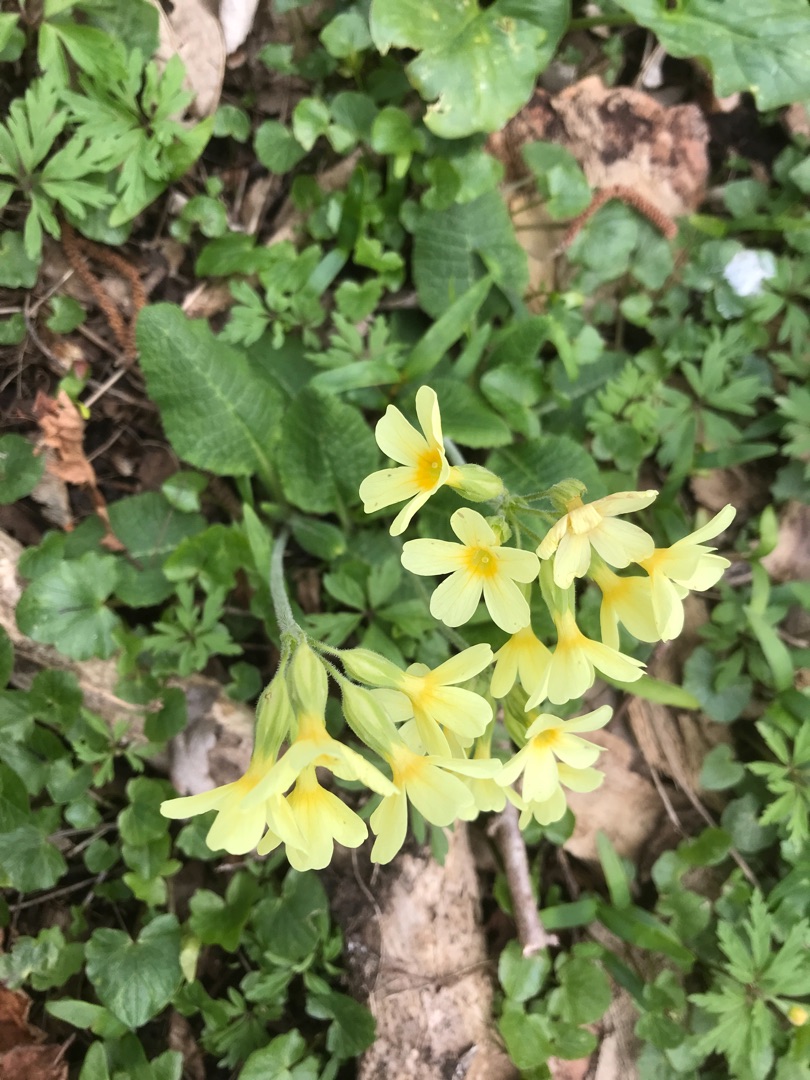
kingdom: Plantae
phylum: Tracheophyta
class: Magnoliopsida
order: Ericales
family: Primulaceae
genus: Primula
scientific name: Primula elatior
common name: Fladkravet kodriver
